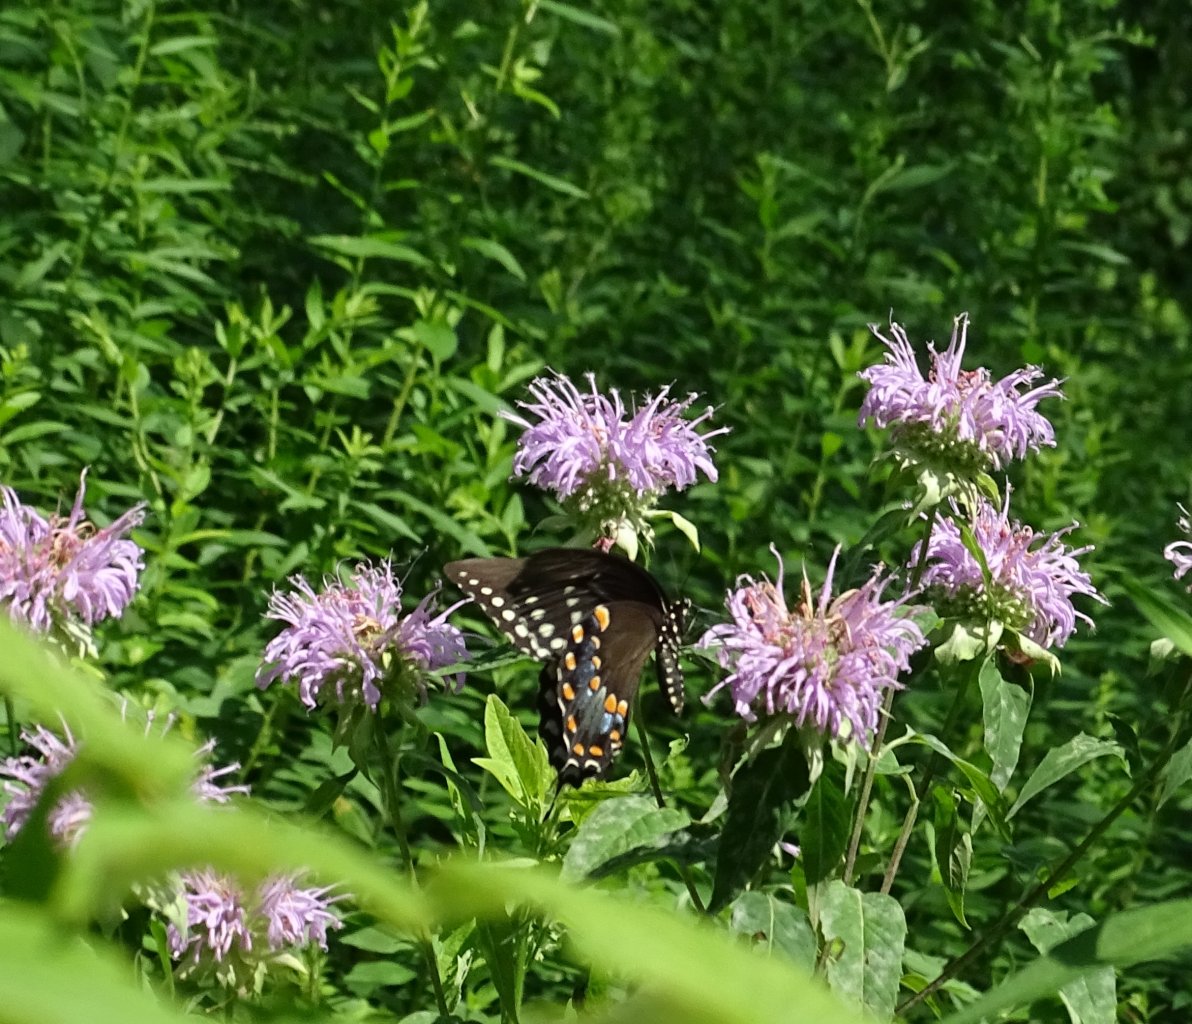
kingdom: Animalia
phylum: Arthropoda
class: Insecta
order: Lepidoptera
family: Papilionidae
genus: Pterourus
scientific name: Pterourus troilus
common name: Spicebush Swallowtail
